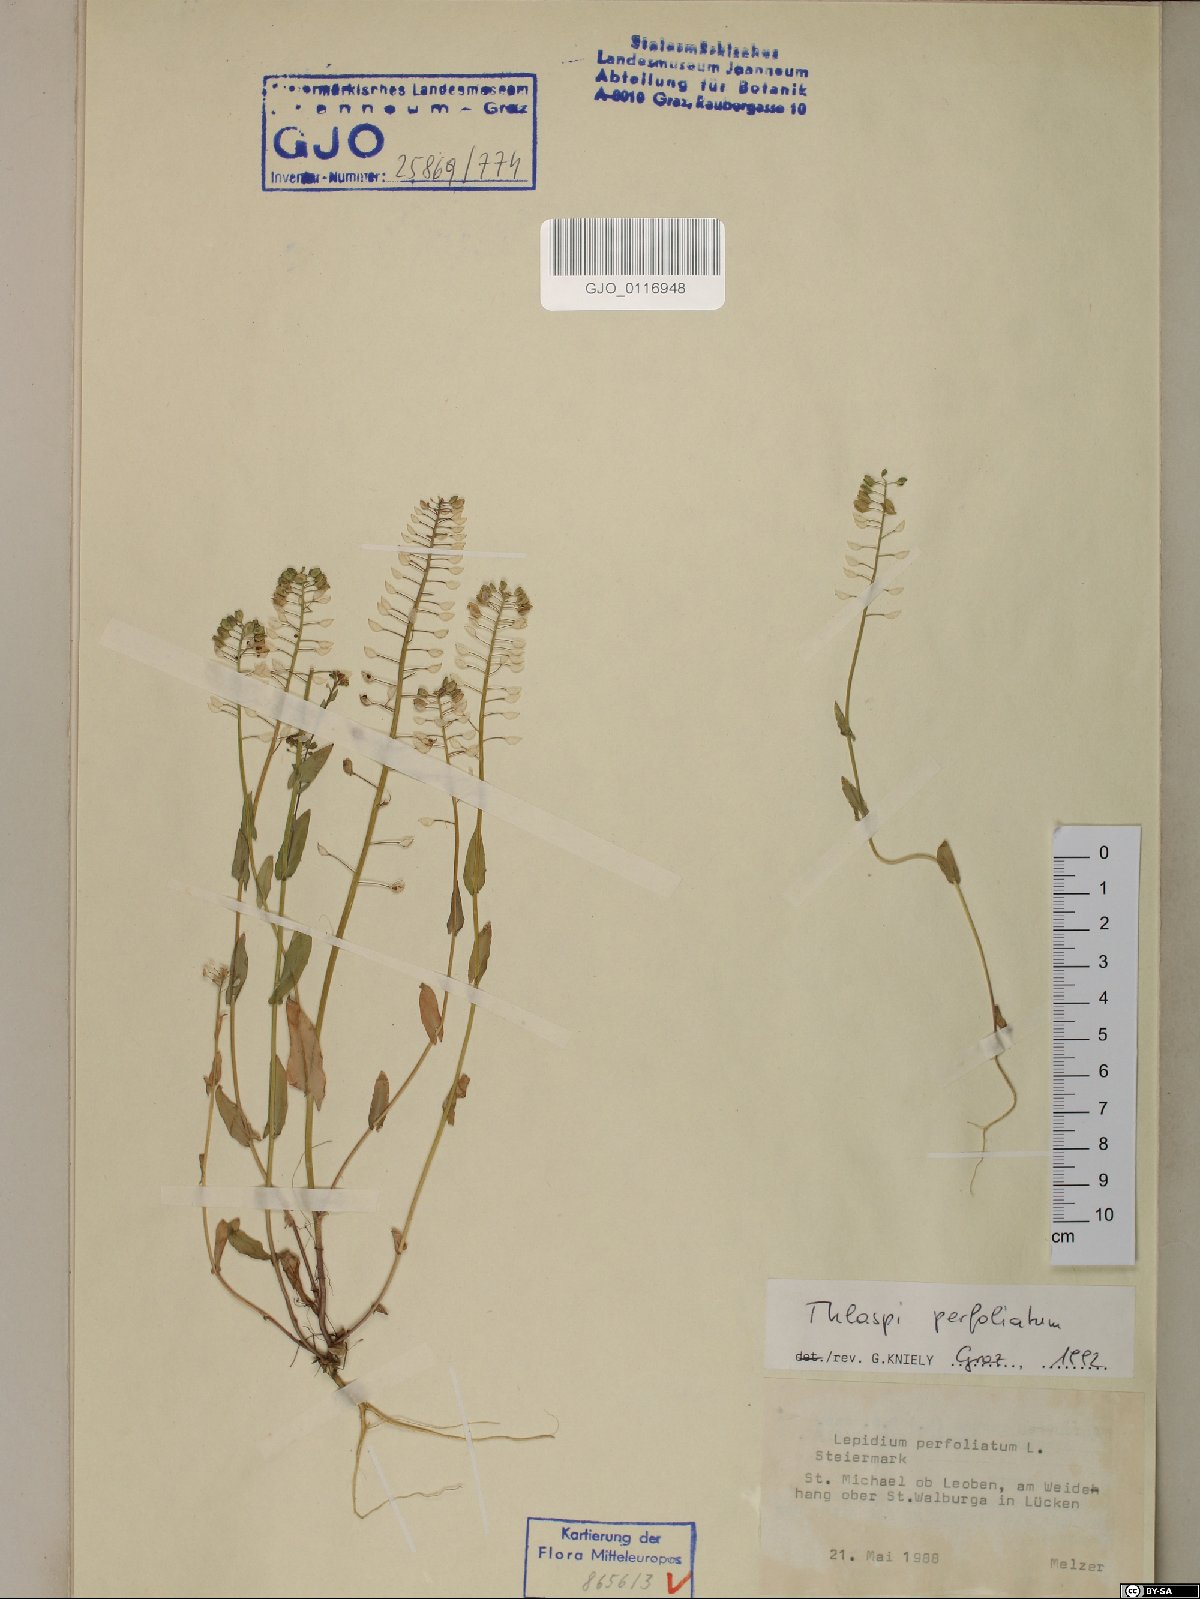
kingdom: Plantae
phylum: Tracheophyta
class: Magnoliopsida
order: Brassicales
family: Brassicaceae
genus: Noccaea
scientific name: Noccaea perfoliata
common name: Perfoliate pennycress
